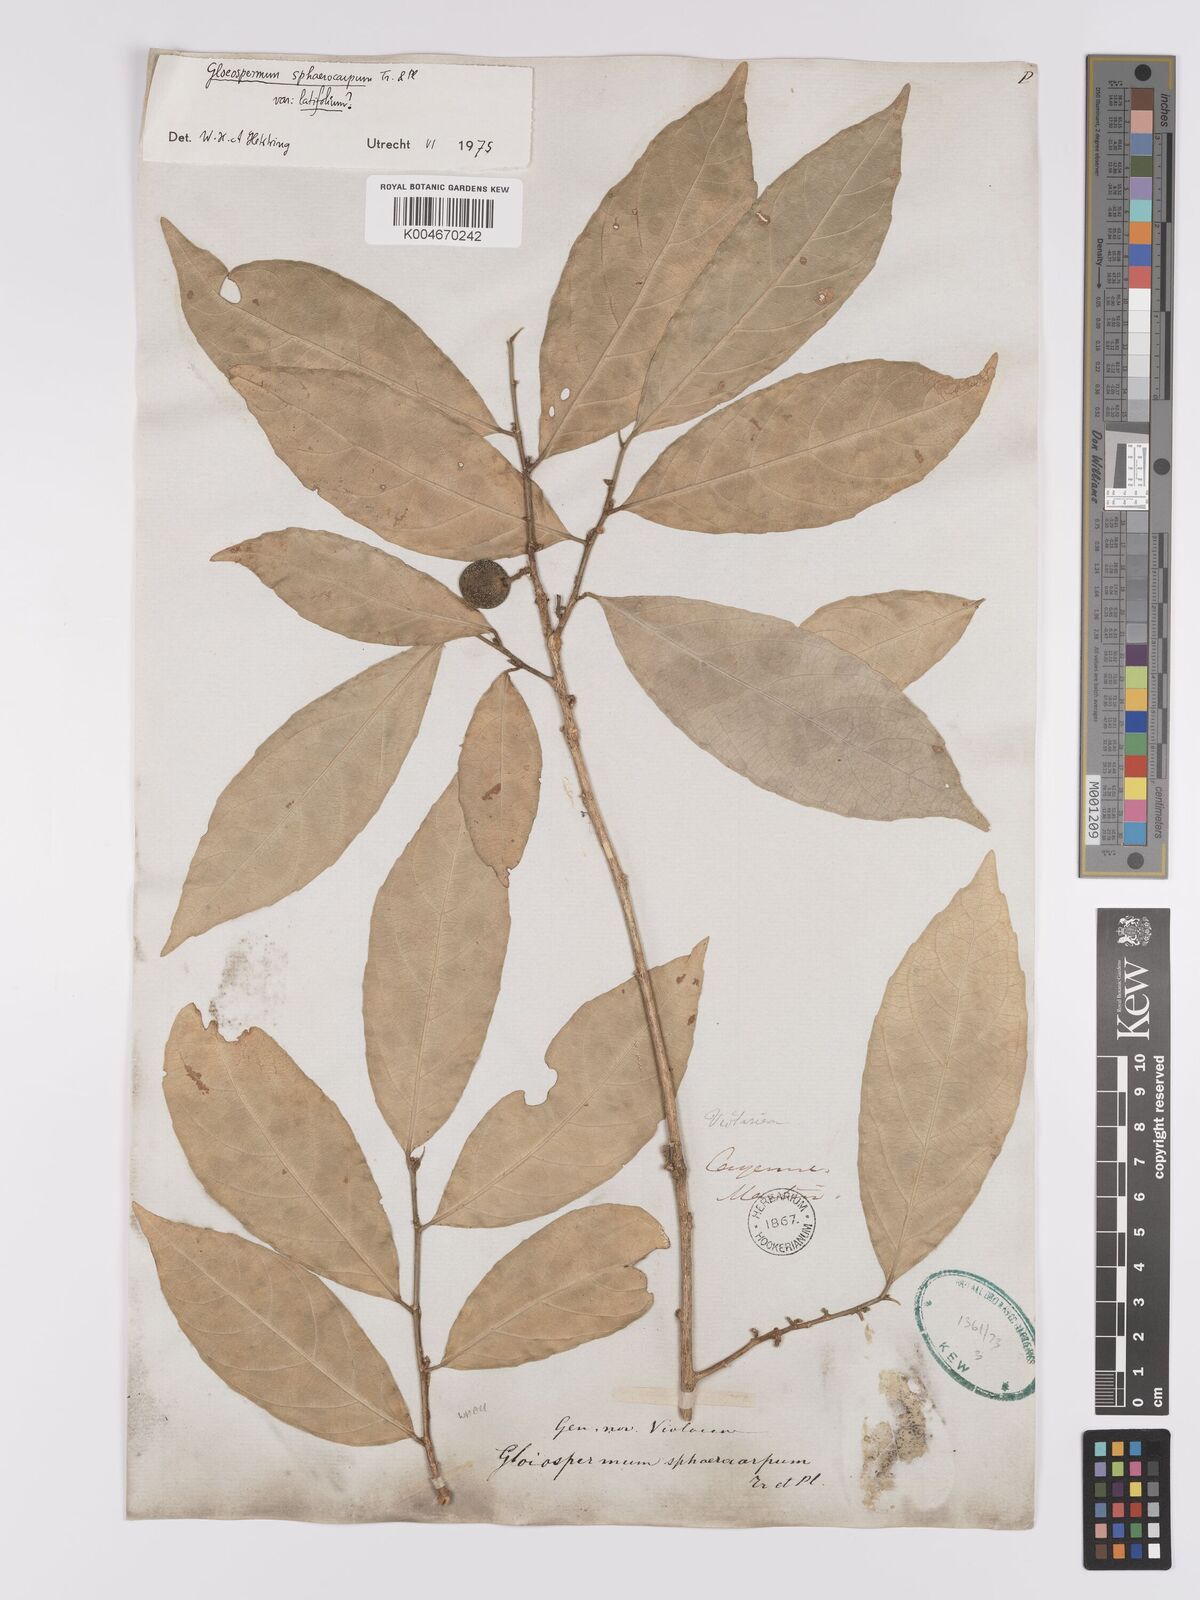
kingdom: Plantae
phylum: Tracheophyta
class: Magnoliopsida
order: Malpighiales
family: Violaceae
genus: Gloeospermum
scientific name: Gloeospermum sphaerocarpum
